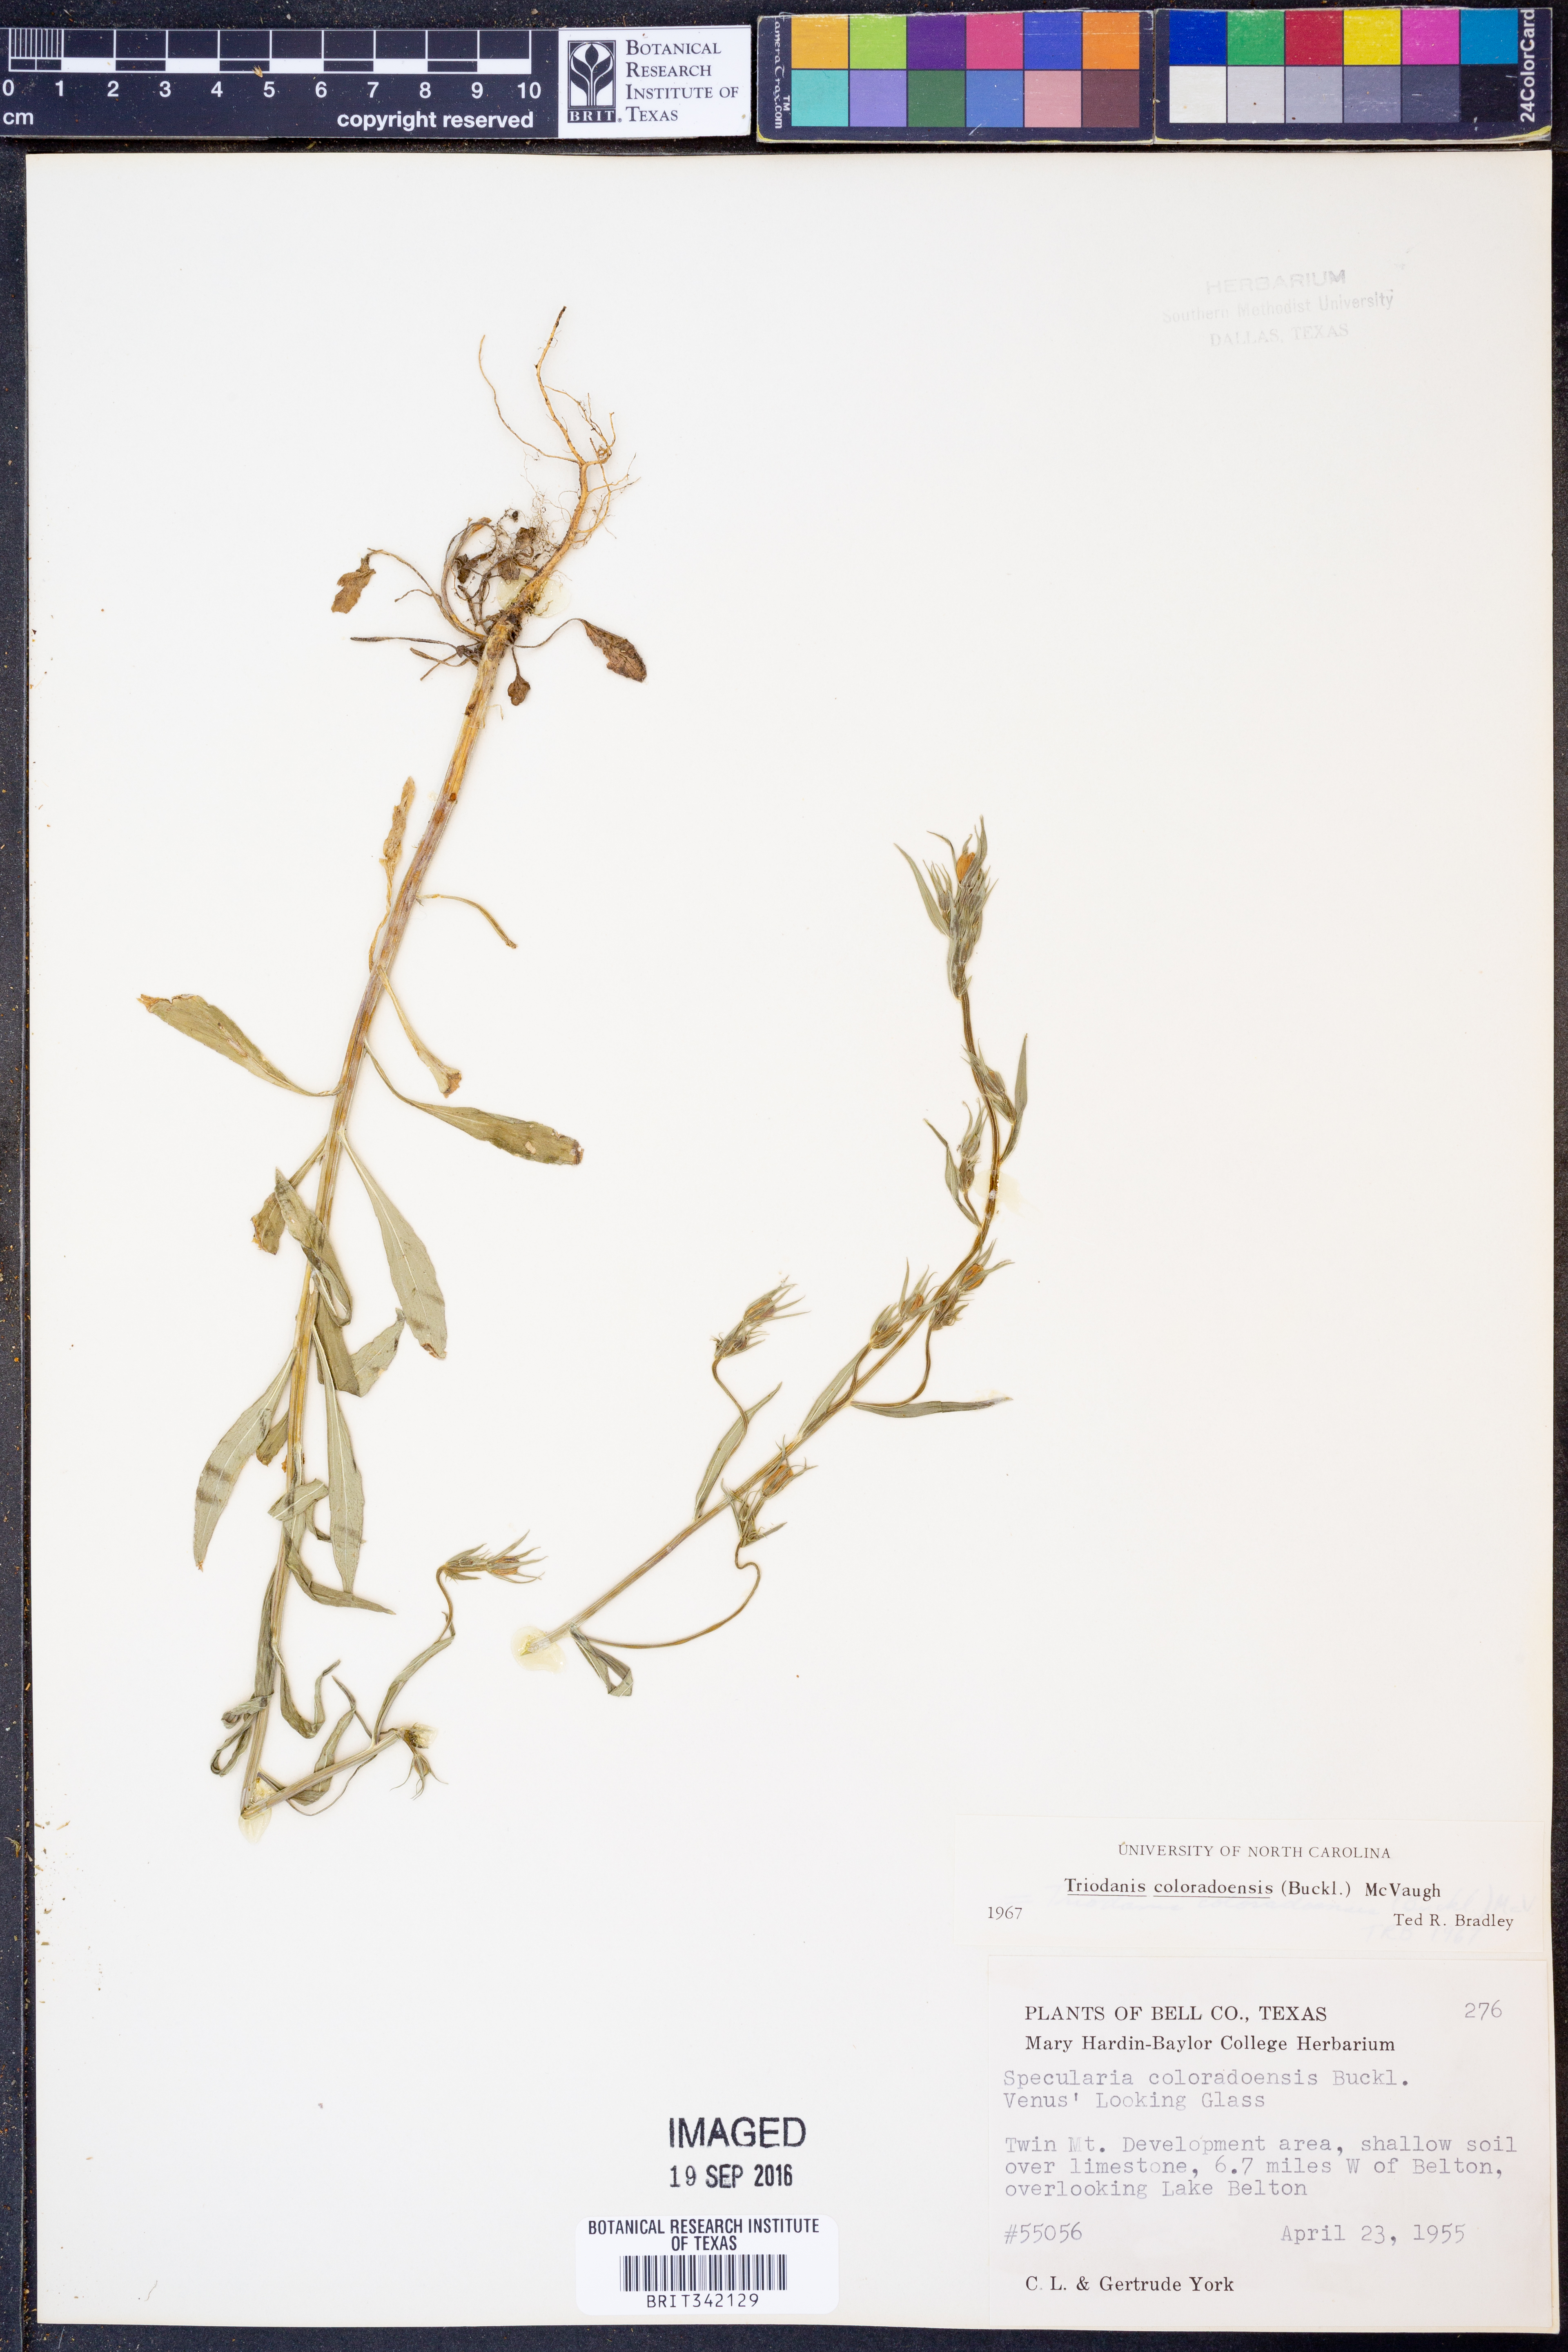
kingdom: Plantae
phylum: Tracheophyta
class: Magnoliopsida
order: Asterales
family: Campanulaceae
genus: Triodanis
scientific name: Triodanis coloradoensis
